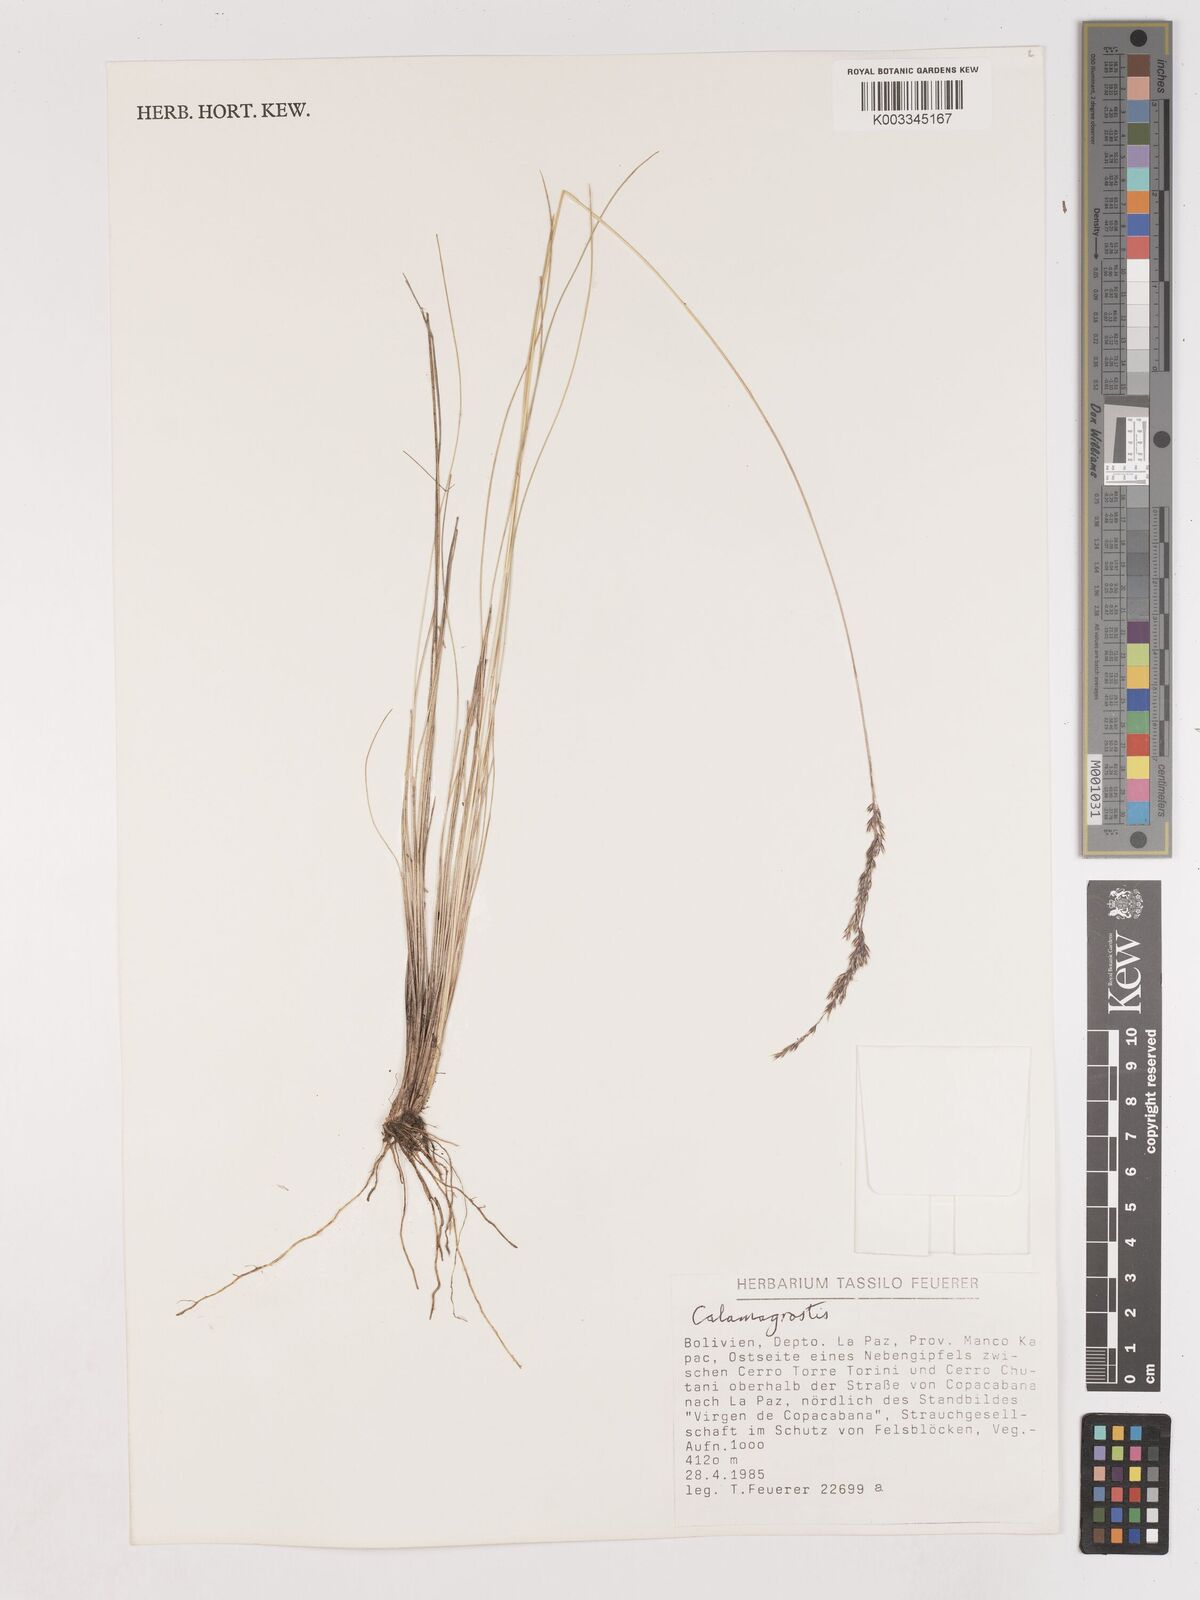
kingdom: Plantae
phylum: Tracheophyta
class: Liliopsida
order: Poales
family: Poaceae
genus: Calamagrostis
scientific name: Calamagrostis
